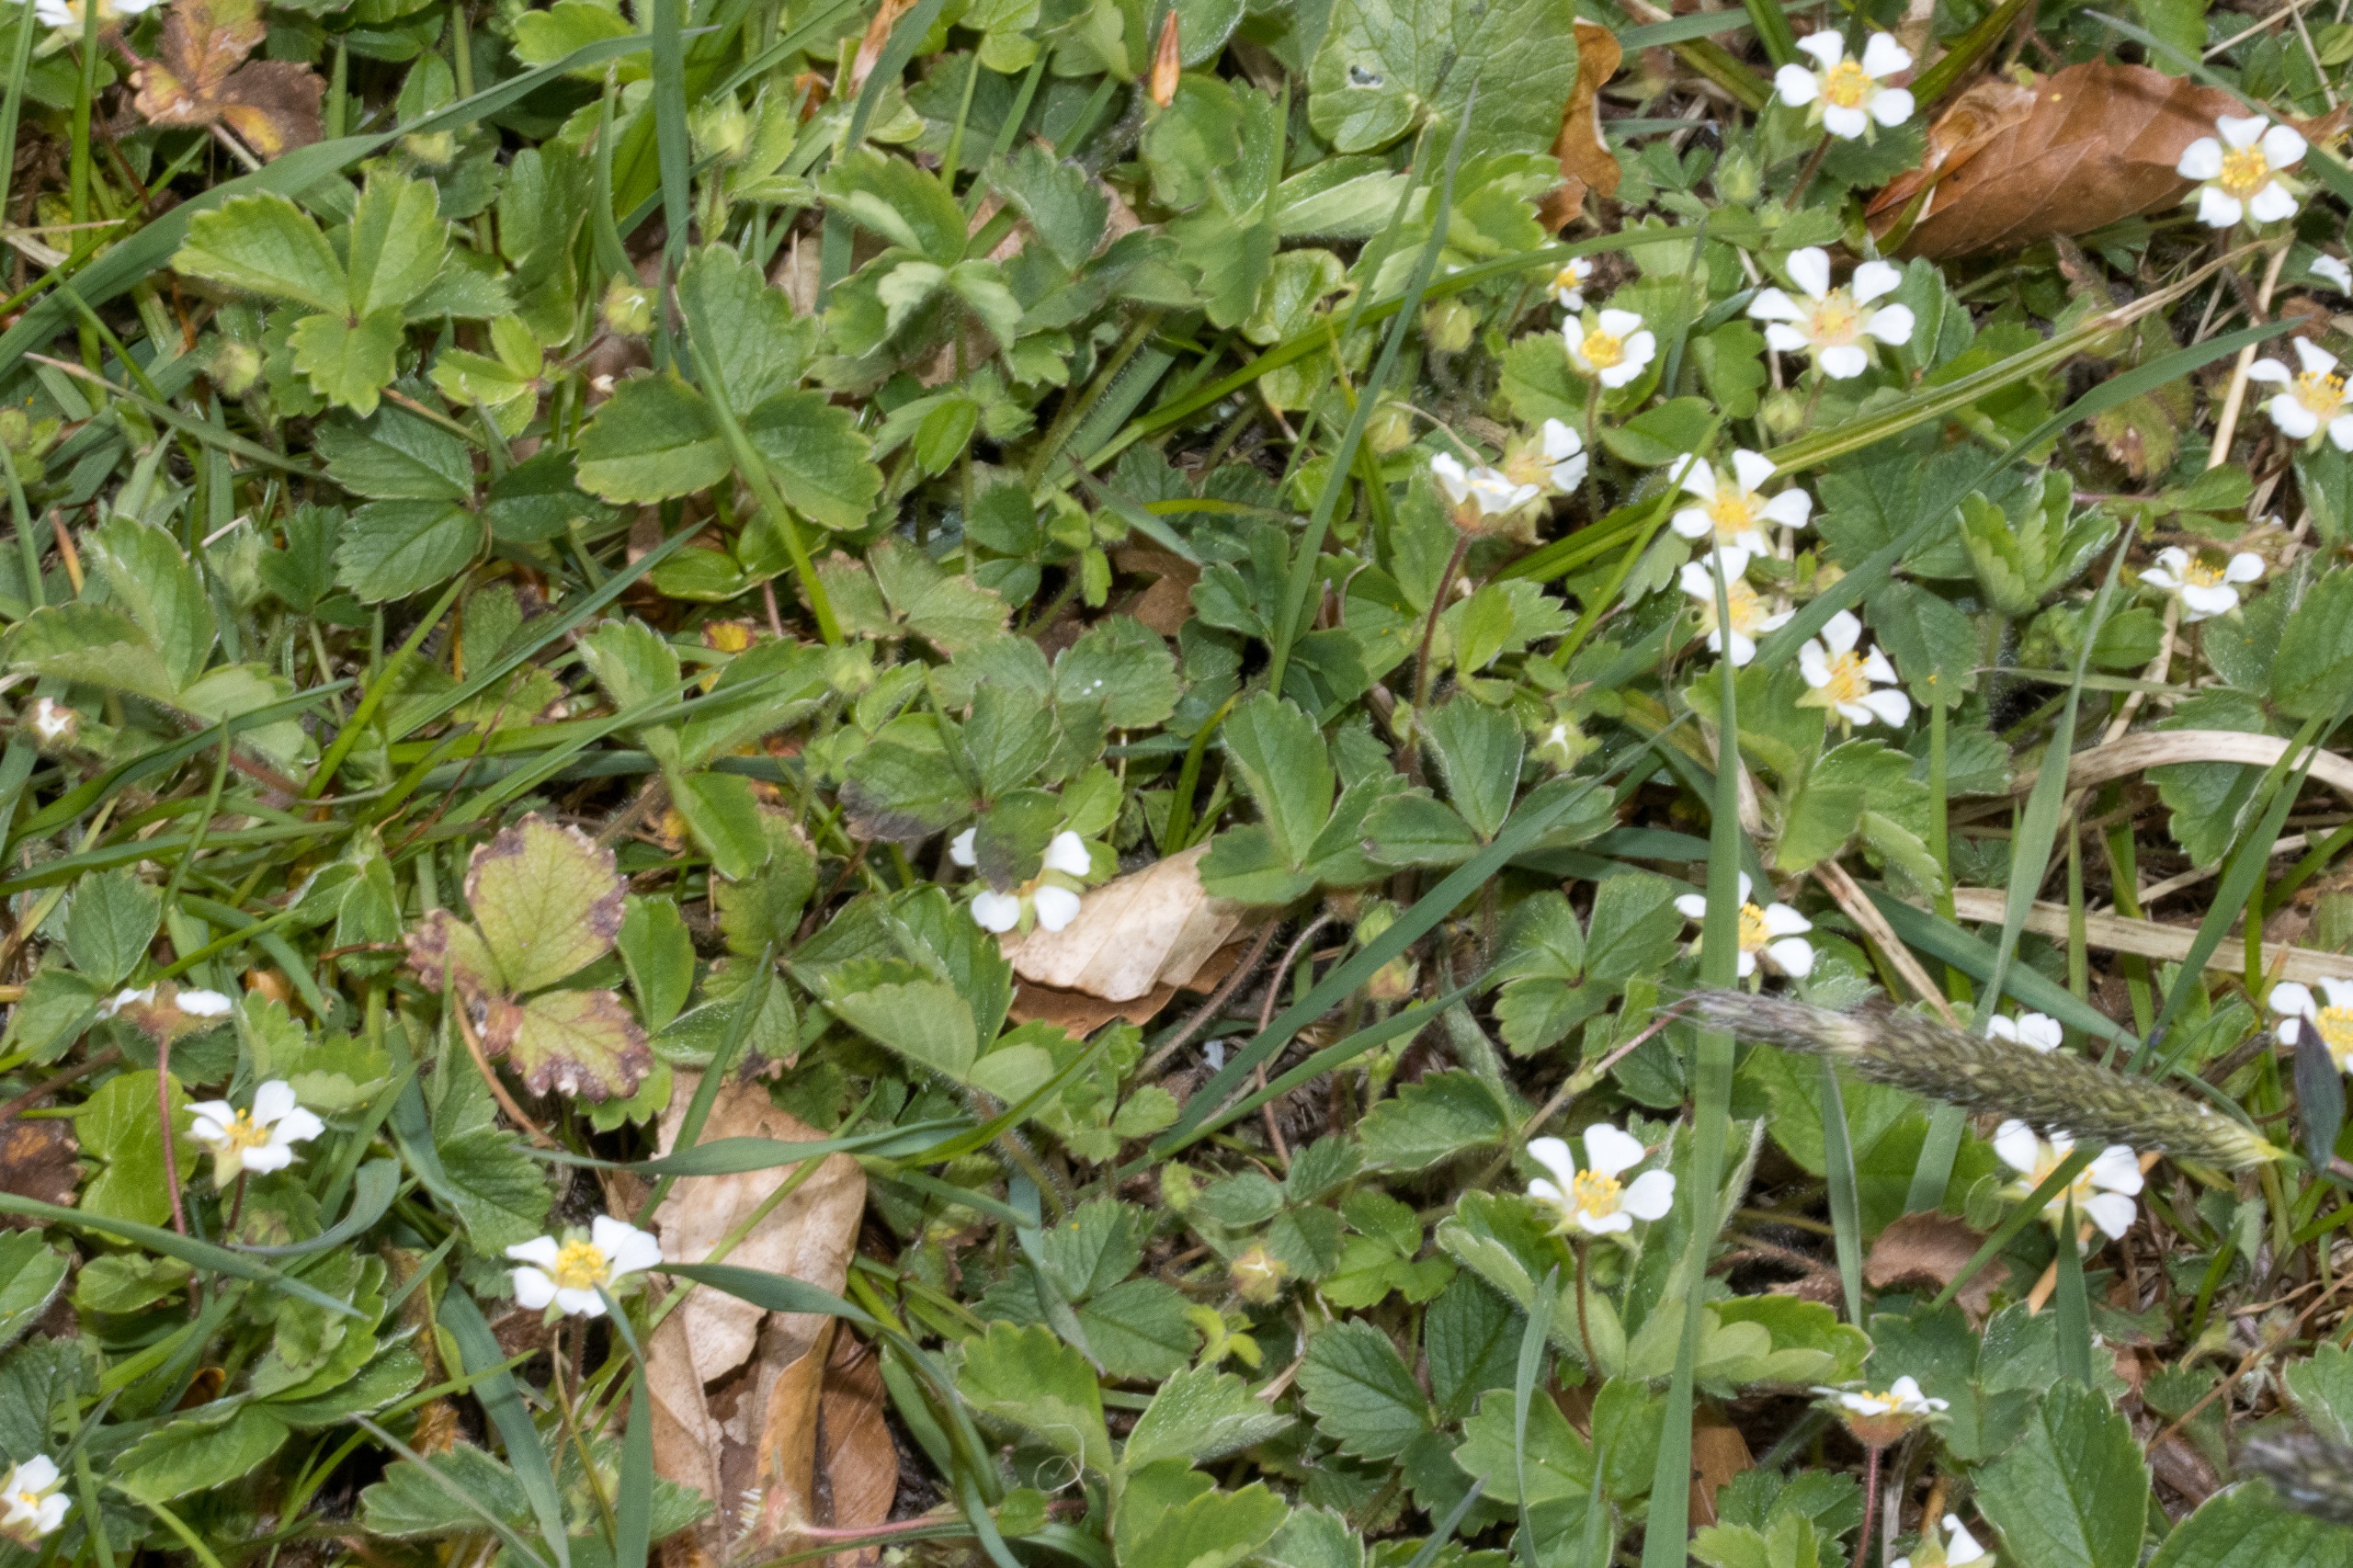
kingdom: Plantae
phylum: Tracheophyta
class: Magnoliopsida
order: Rosales
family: Rosaceae
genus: Potentilla
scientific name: Potentilla sterilis
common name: Jordbær-potentil
